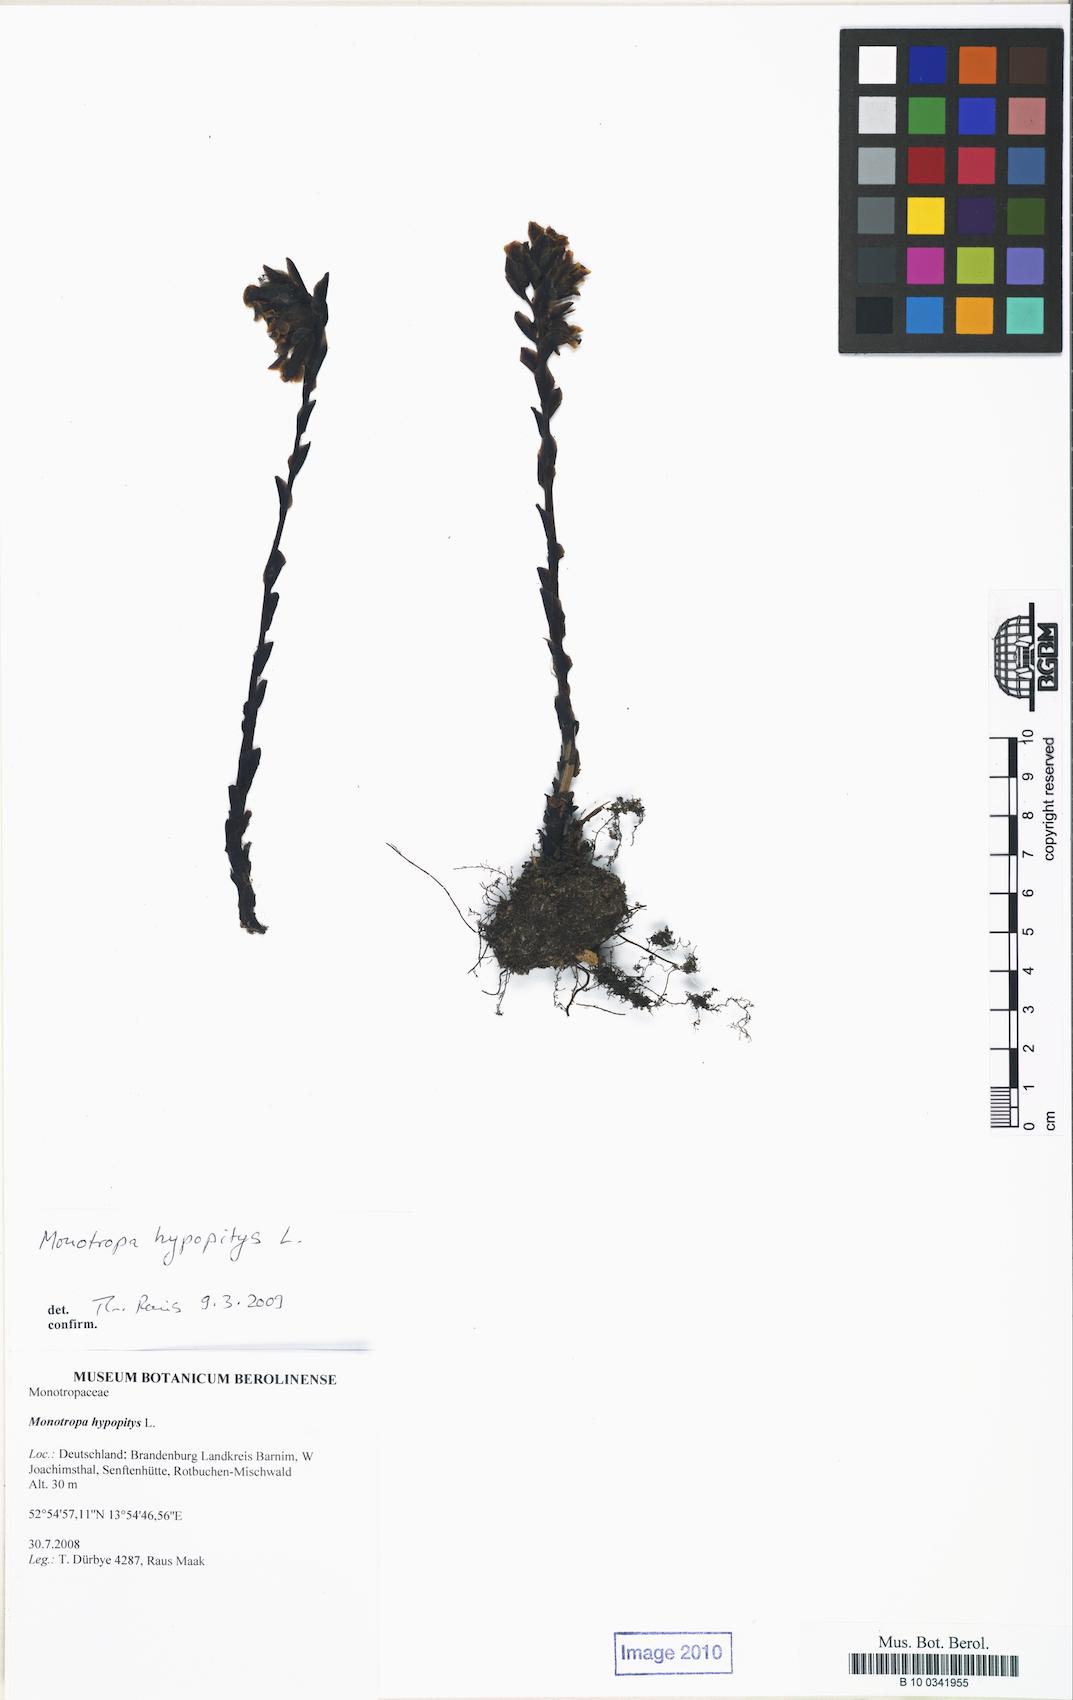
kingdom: Plantae
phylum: Tracheophyta
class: Magnoliopsida
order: Ericales
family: Ericaceae
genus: Hypopitys
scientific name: Hypopitys monotropa
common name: Yellow bird's-nest
